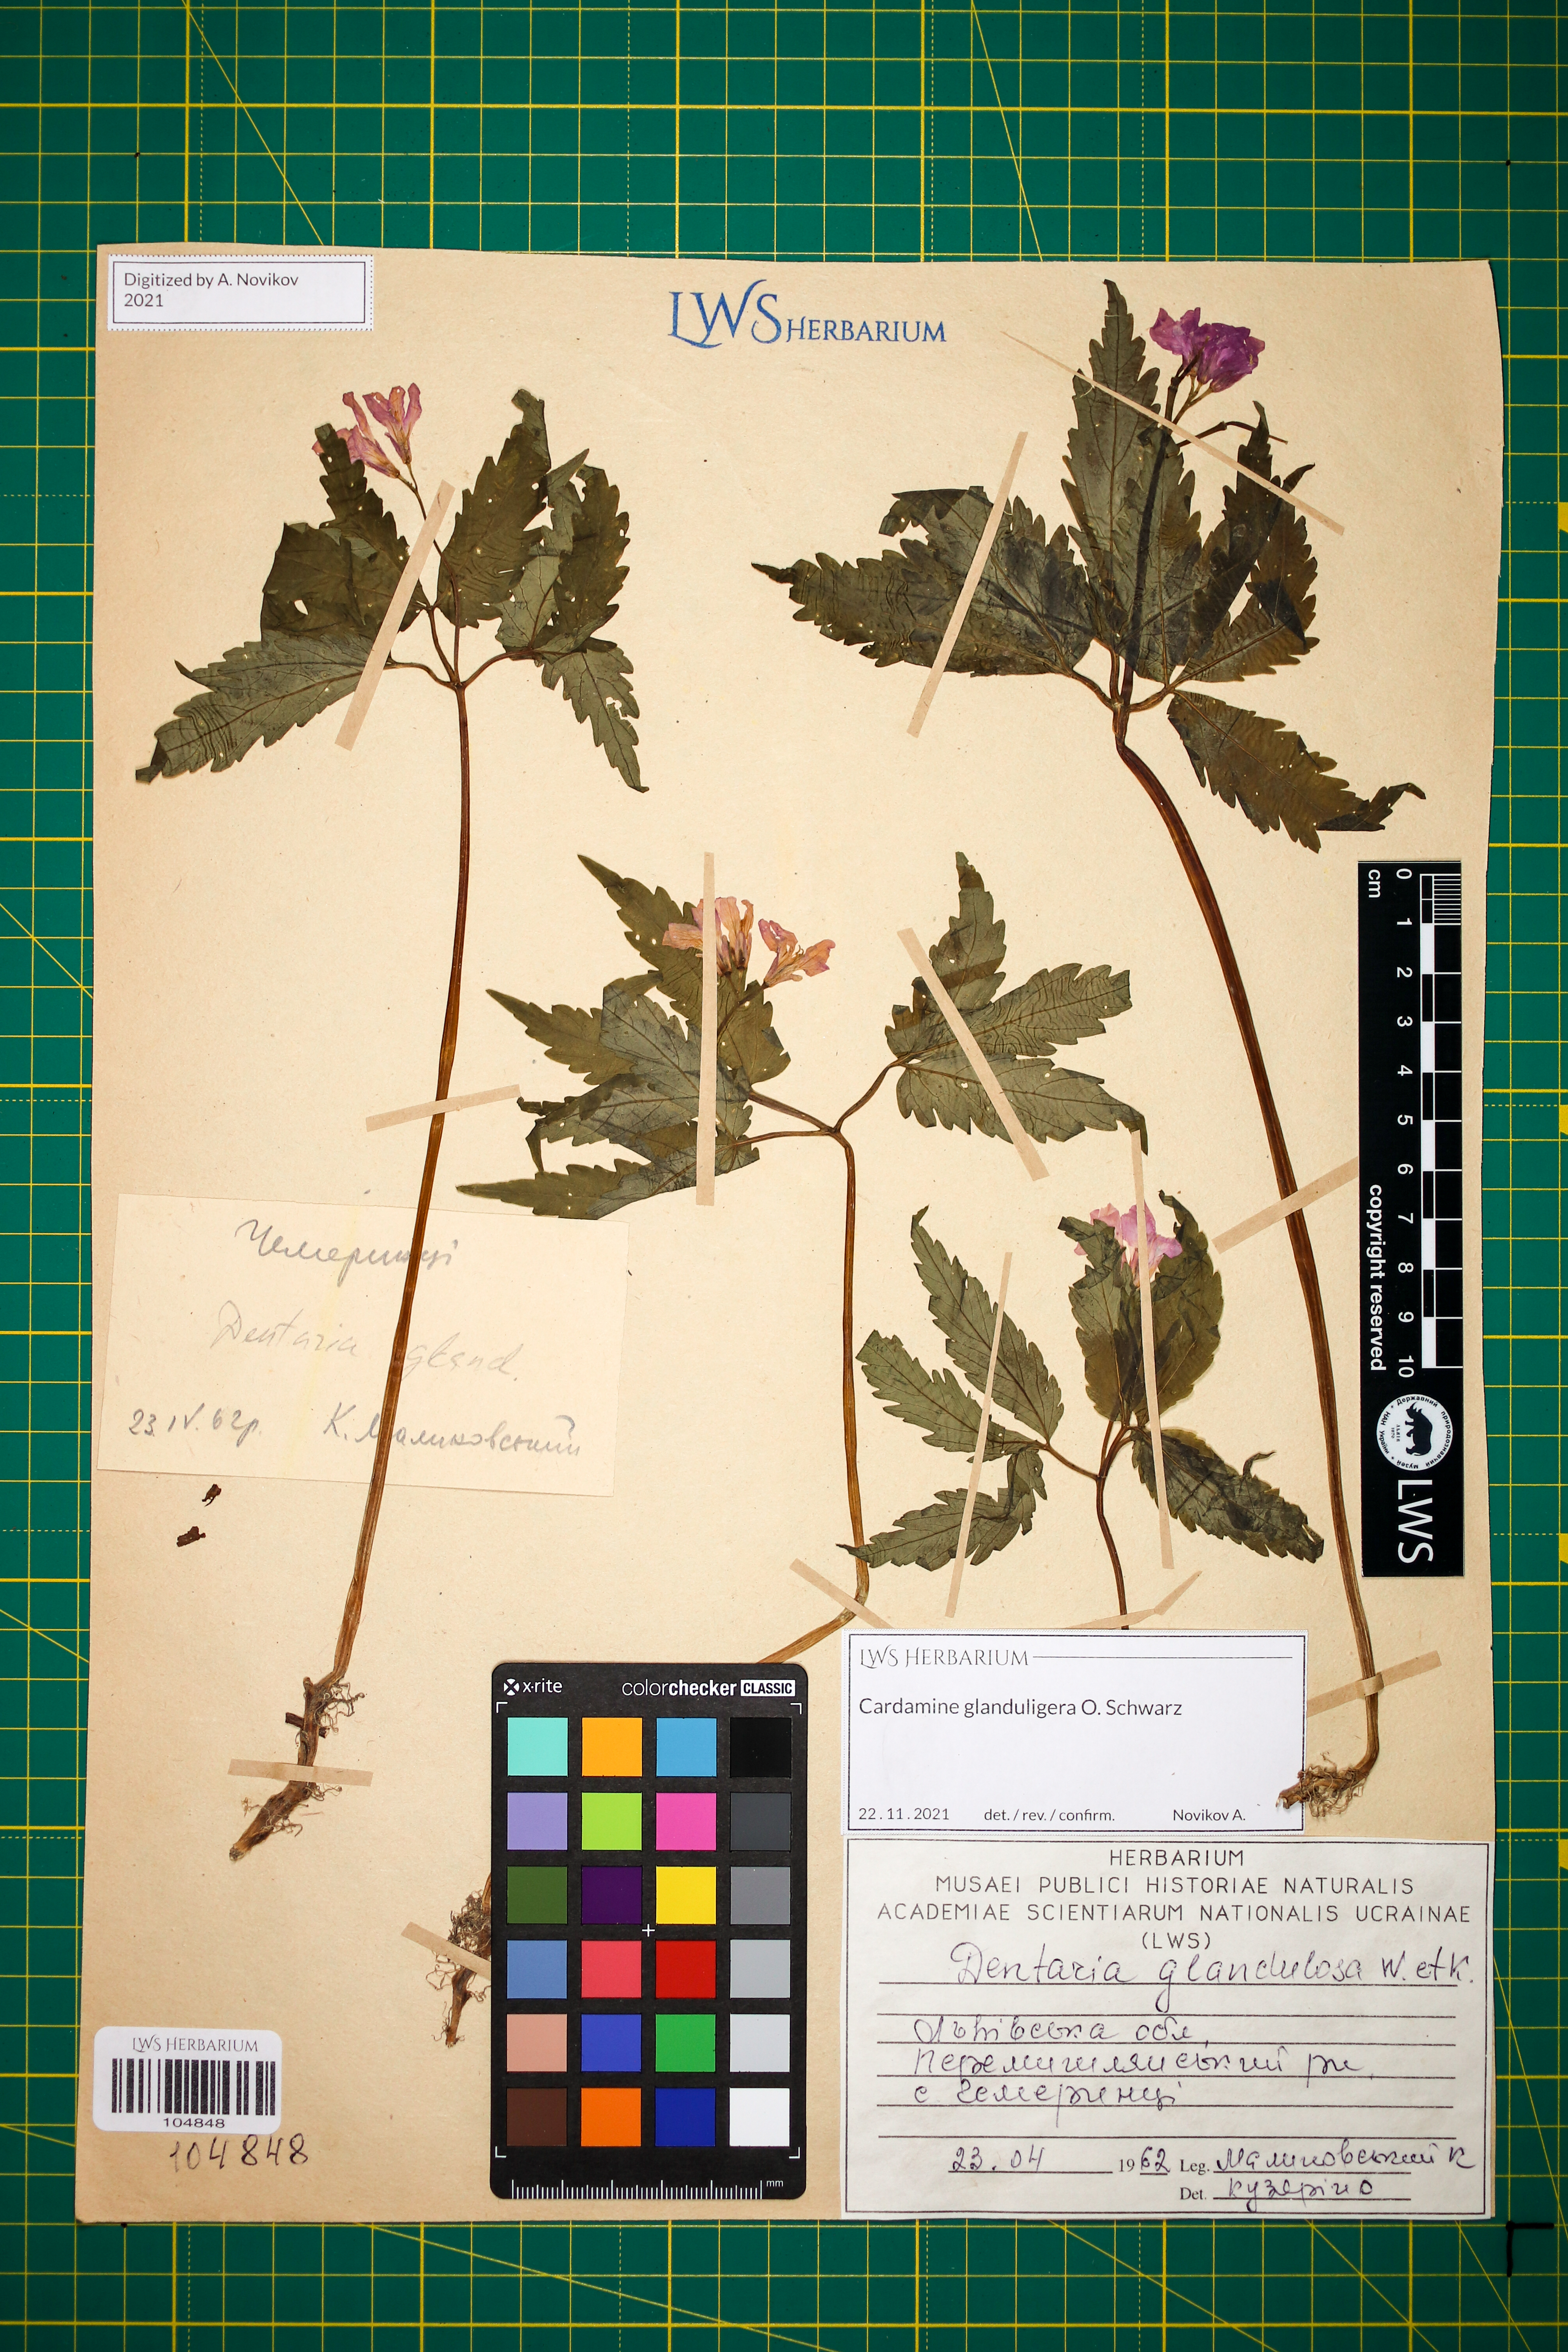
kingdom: Plantae
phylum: Tracheophyta
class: Magnoliopsida
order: Brassicales
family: Brassicaceae
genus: Cardamine
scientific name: Cardamine glanduligera
